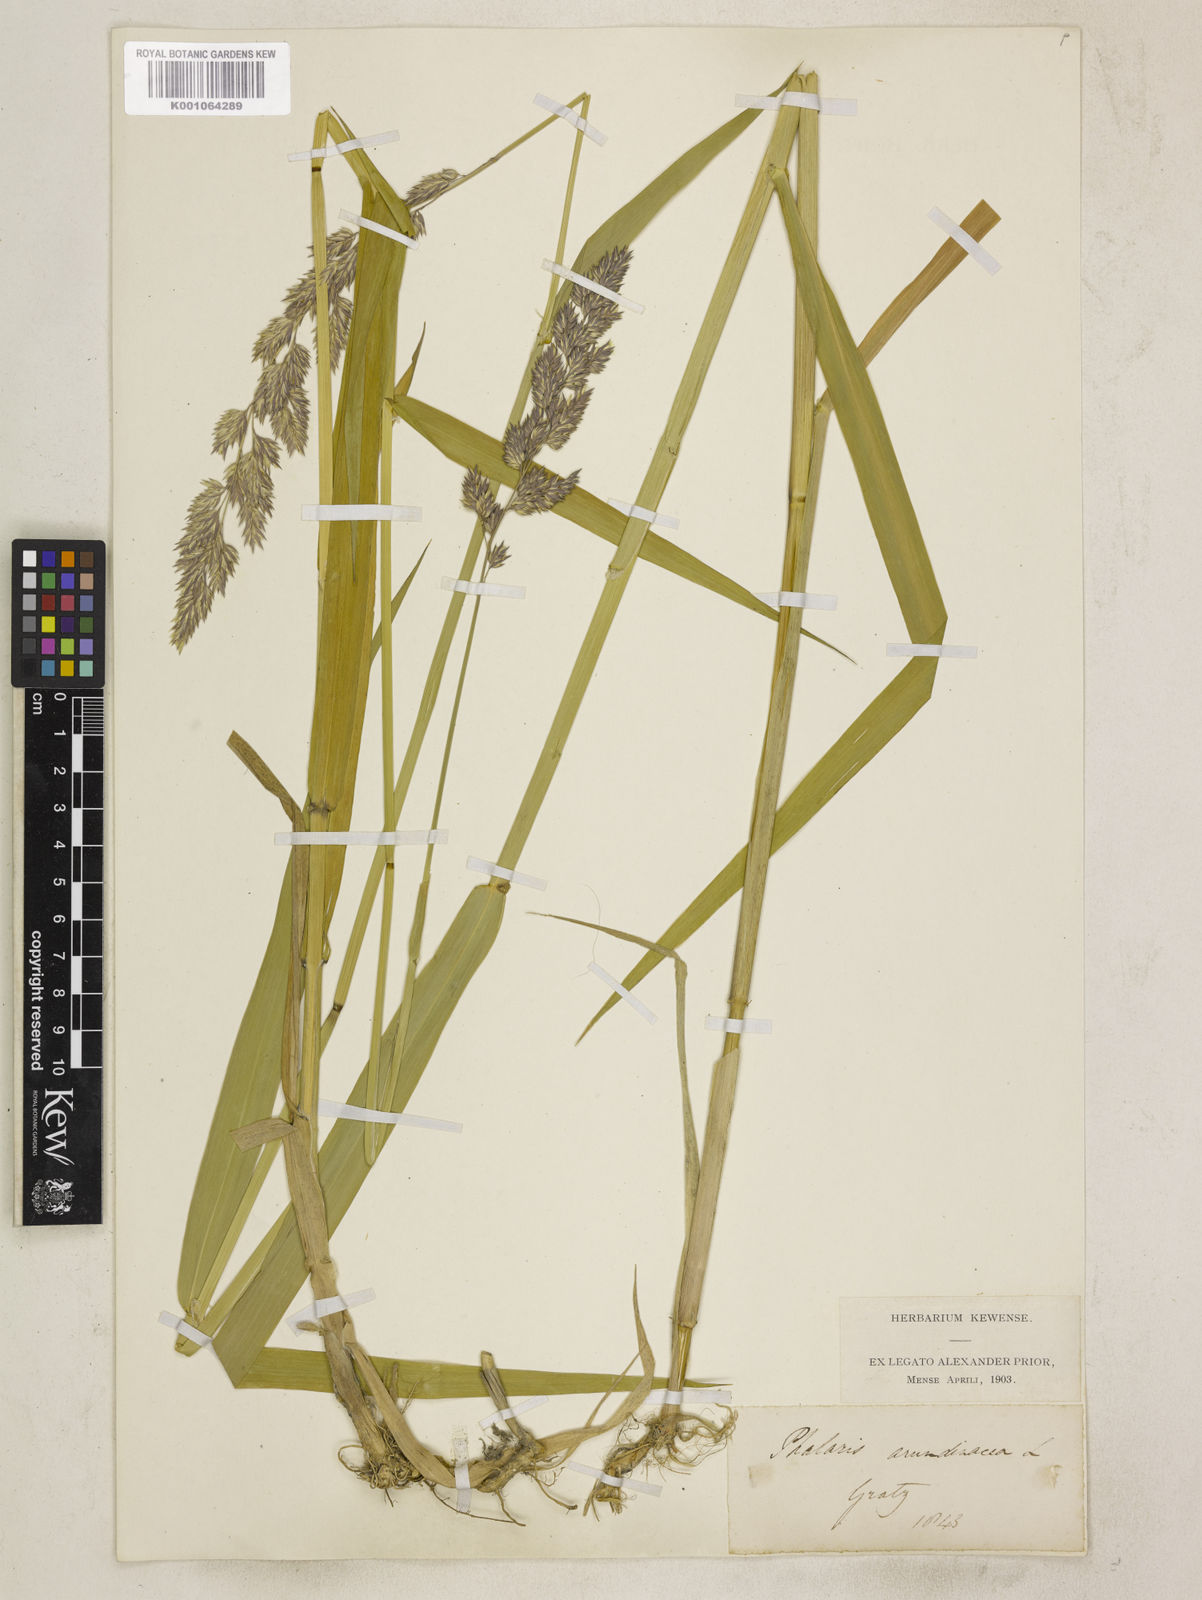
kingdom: Plantae
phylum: Tracheophyta
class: Liliopsida
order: Poales
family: Poaceae
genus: Phalaris
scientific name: Phalaris arundinacea
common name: Reed canary-grass
